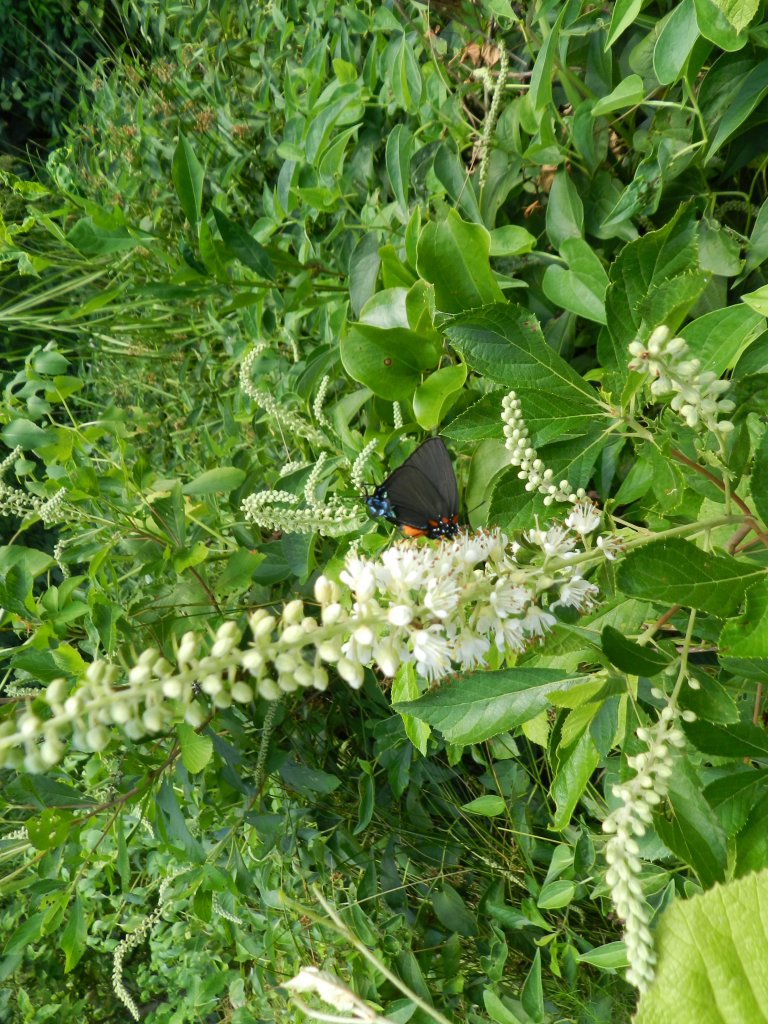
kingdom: Animalia
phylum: Arthropoda
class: Insecta
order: Lepidoptera
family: Lycaenidae
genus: Atlides
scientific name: Atlides halesus
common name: Great Purple Hairstreak
